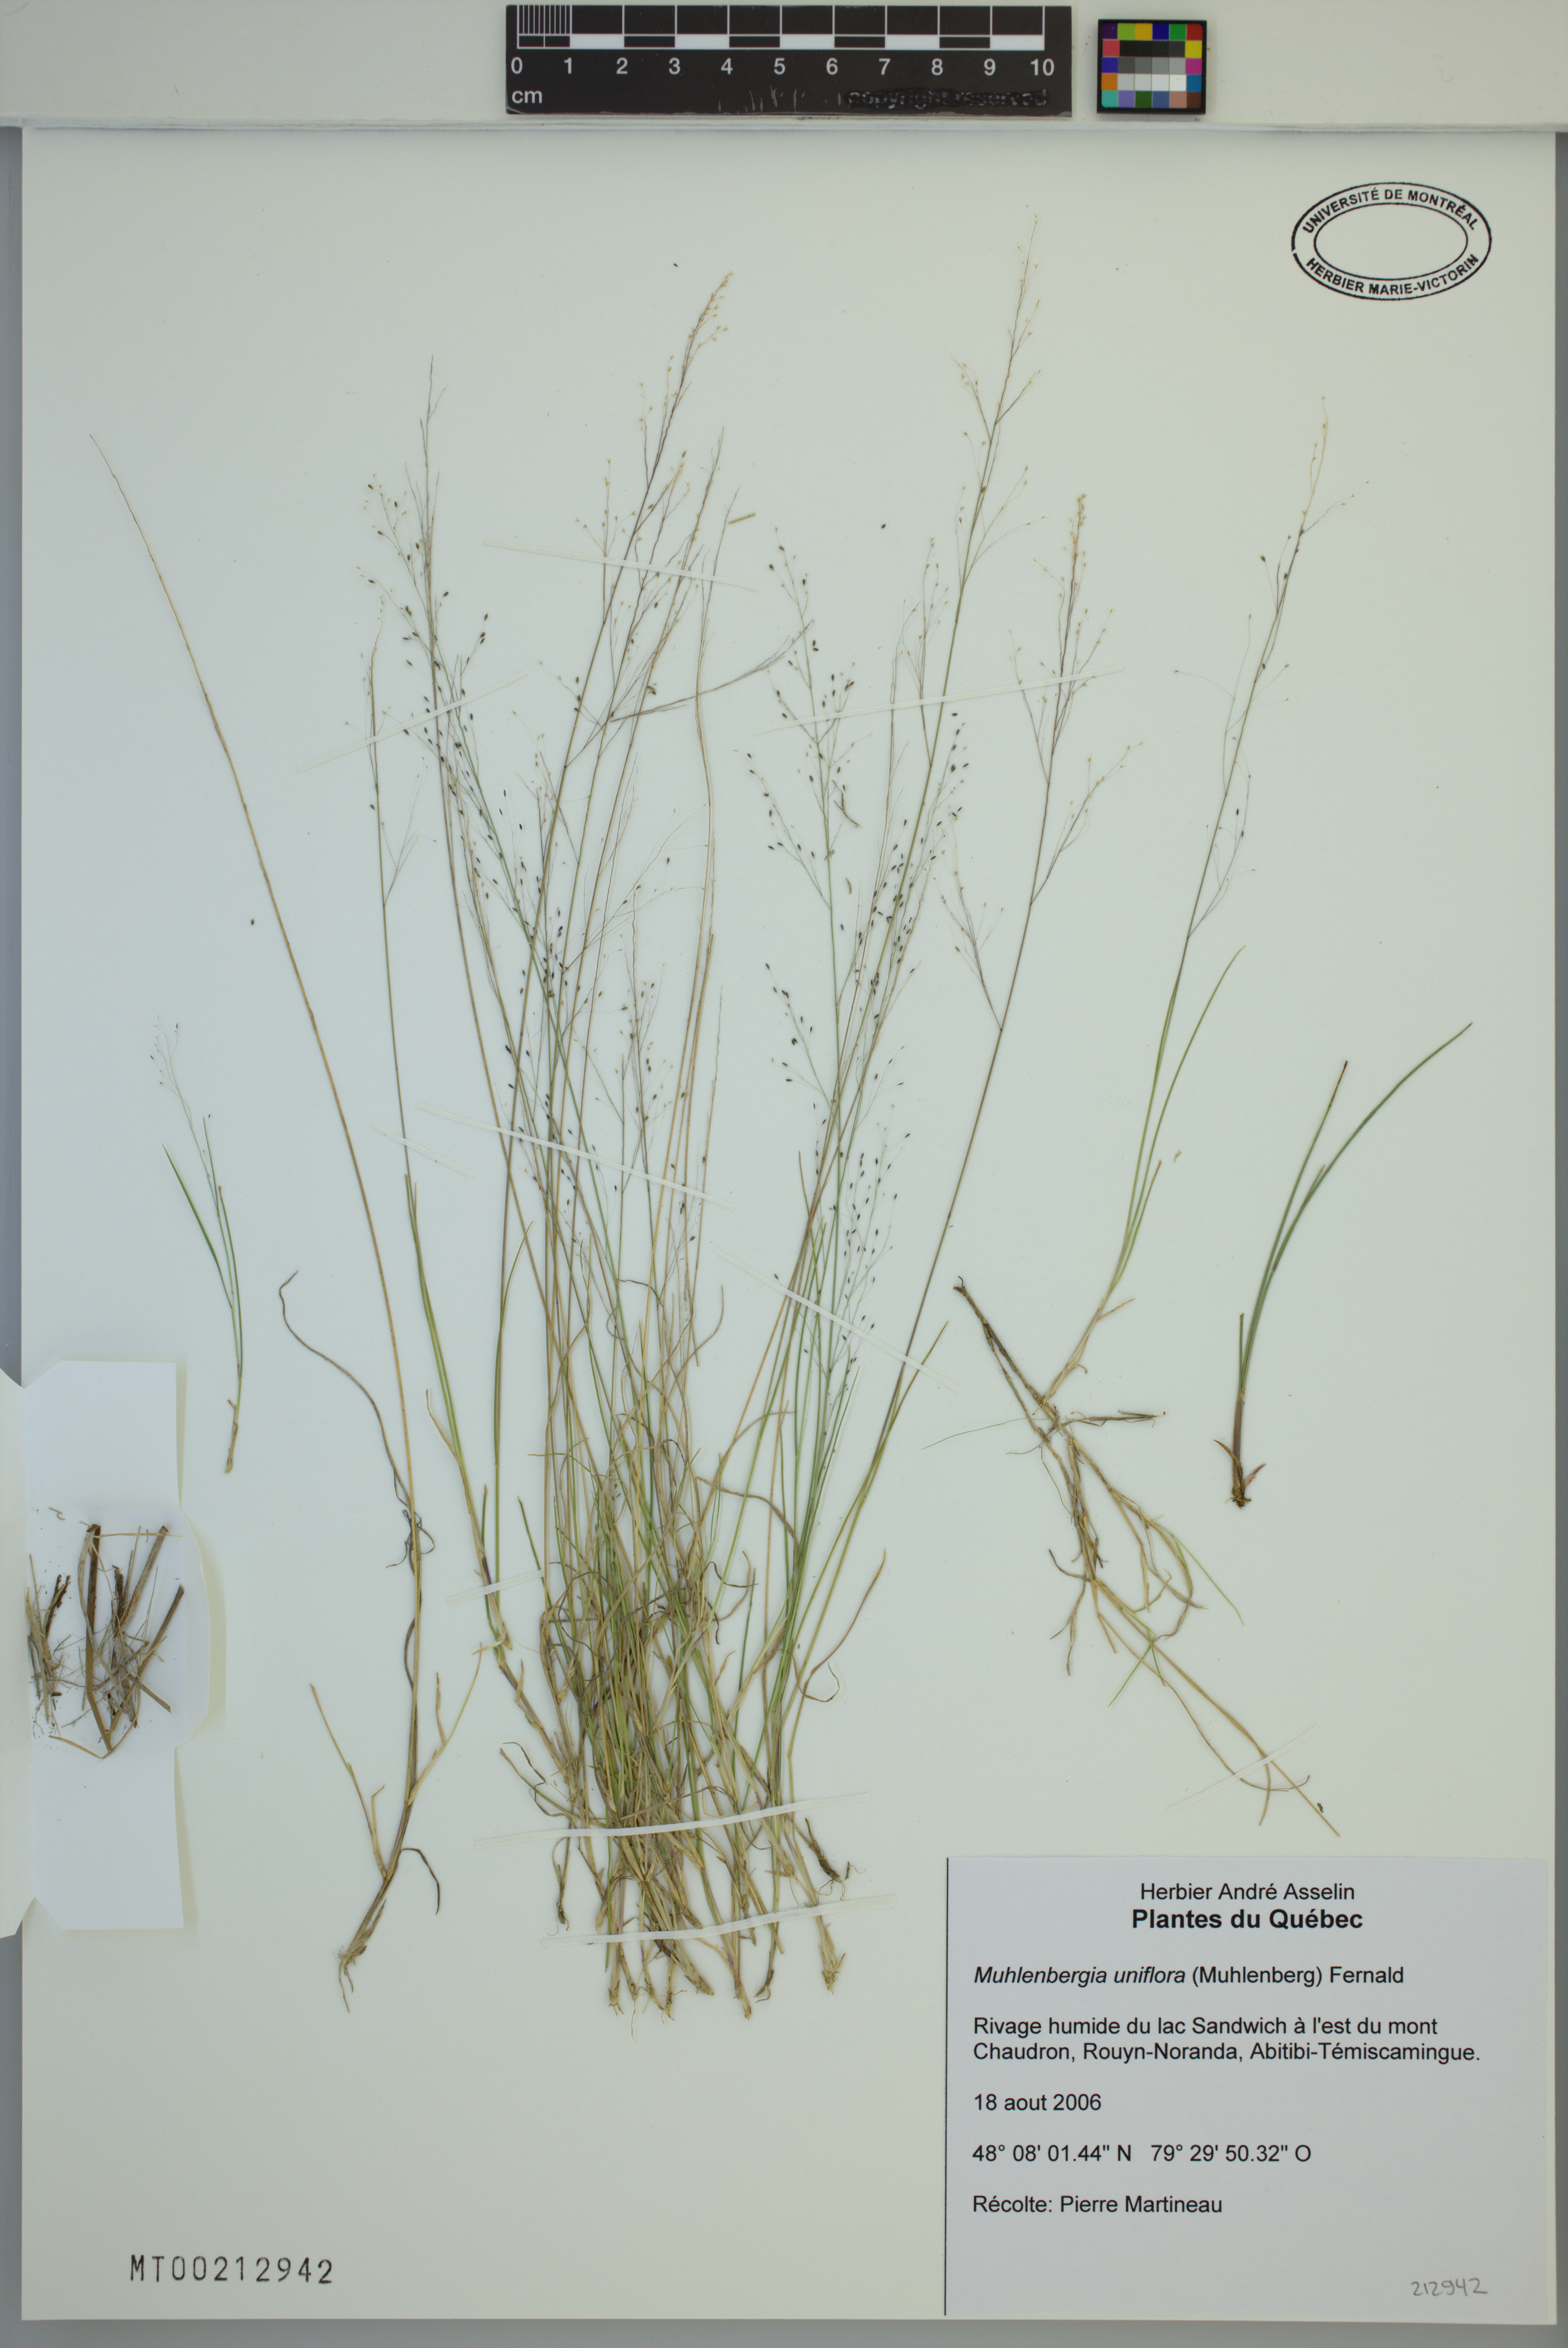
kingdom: Plantae
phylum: Tracheophyta
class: Liliopsida
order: Poales
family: Poaceae
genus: Muhlenbergia
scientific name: Muhlenbergia uniflora
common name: Bog muhly
